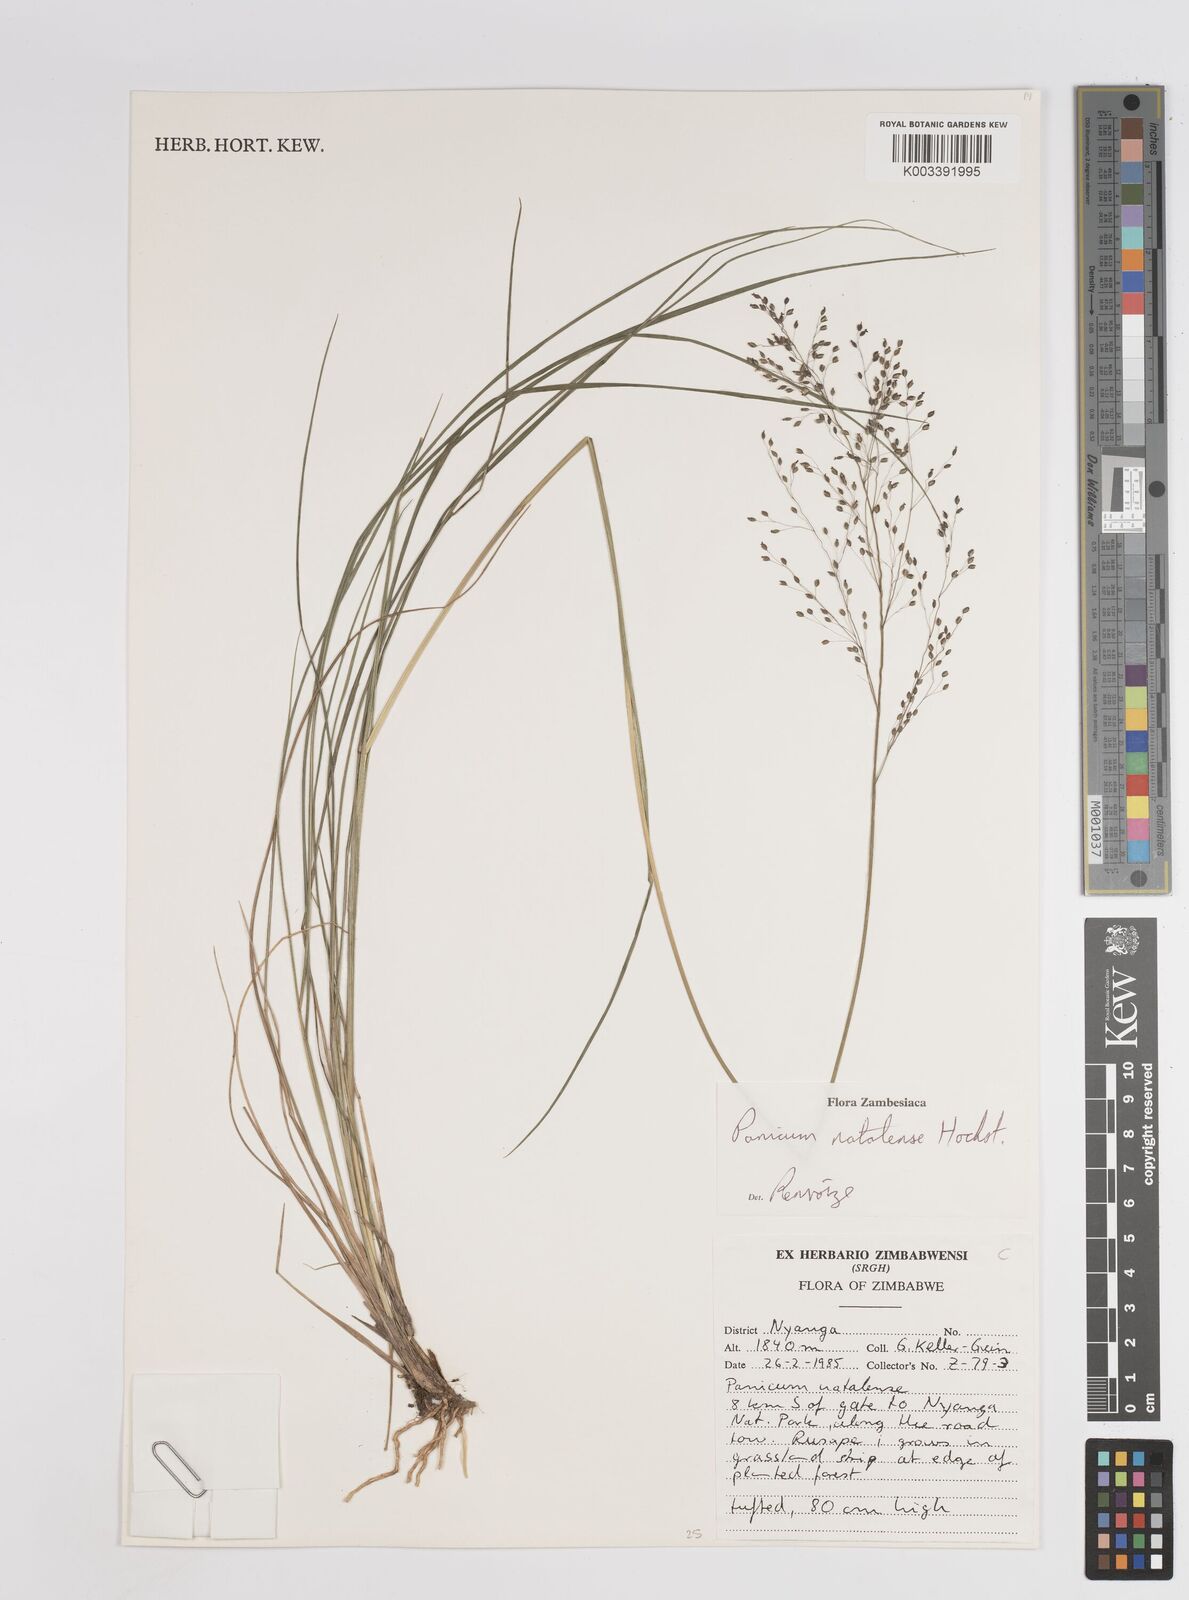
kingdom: Plantae
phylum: Tracheophyta
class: Liliopsida
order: Poales
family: Poaceae
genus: Trichanthecium
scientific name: Trichanthecium natalense
